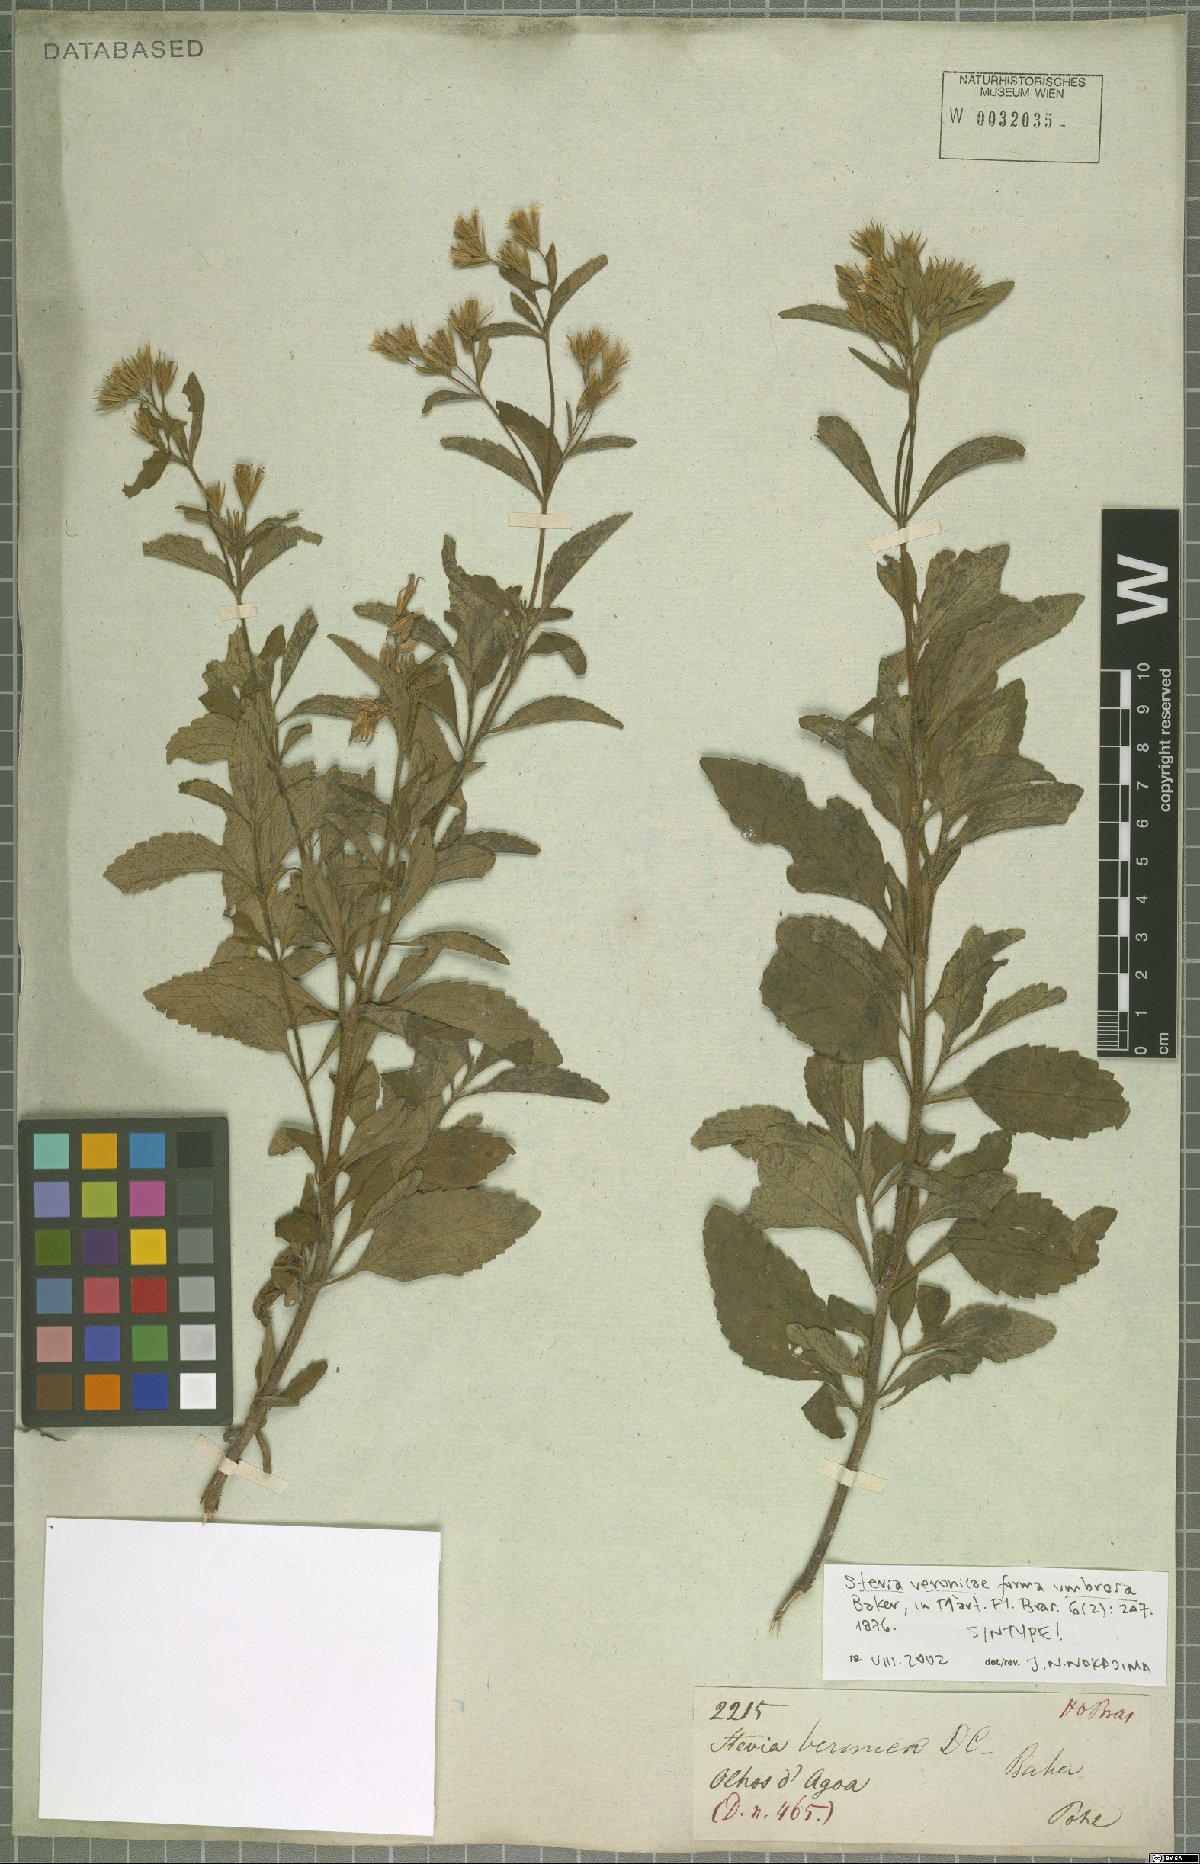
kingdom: Plantae
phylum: Tracheophyta
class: Magnoliopsida
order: Asterales
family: Asteraceae
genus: Stevia
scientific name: Stevia tenuis
